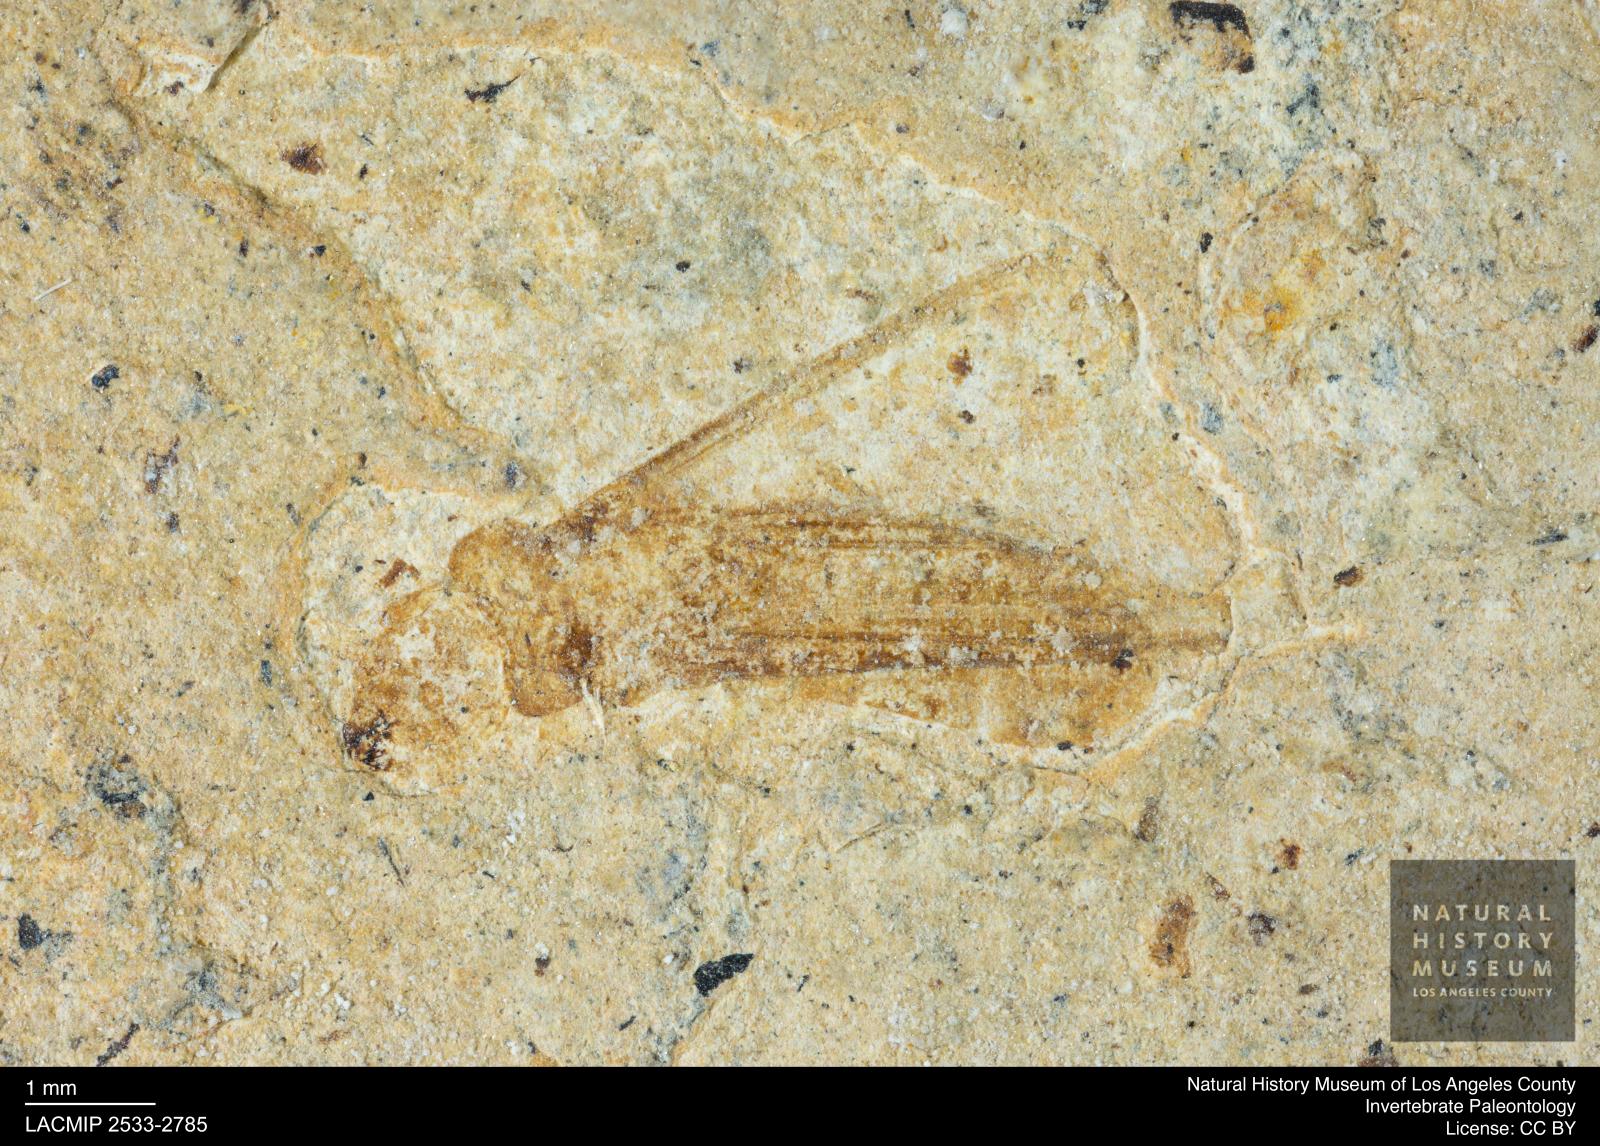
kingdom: Animalia
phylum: Arthropoda
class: Insecta
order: Blattodea
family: Kalotermitidae
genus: Kalotermes
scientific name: Kalotermes rhenanus
